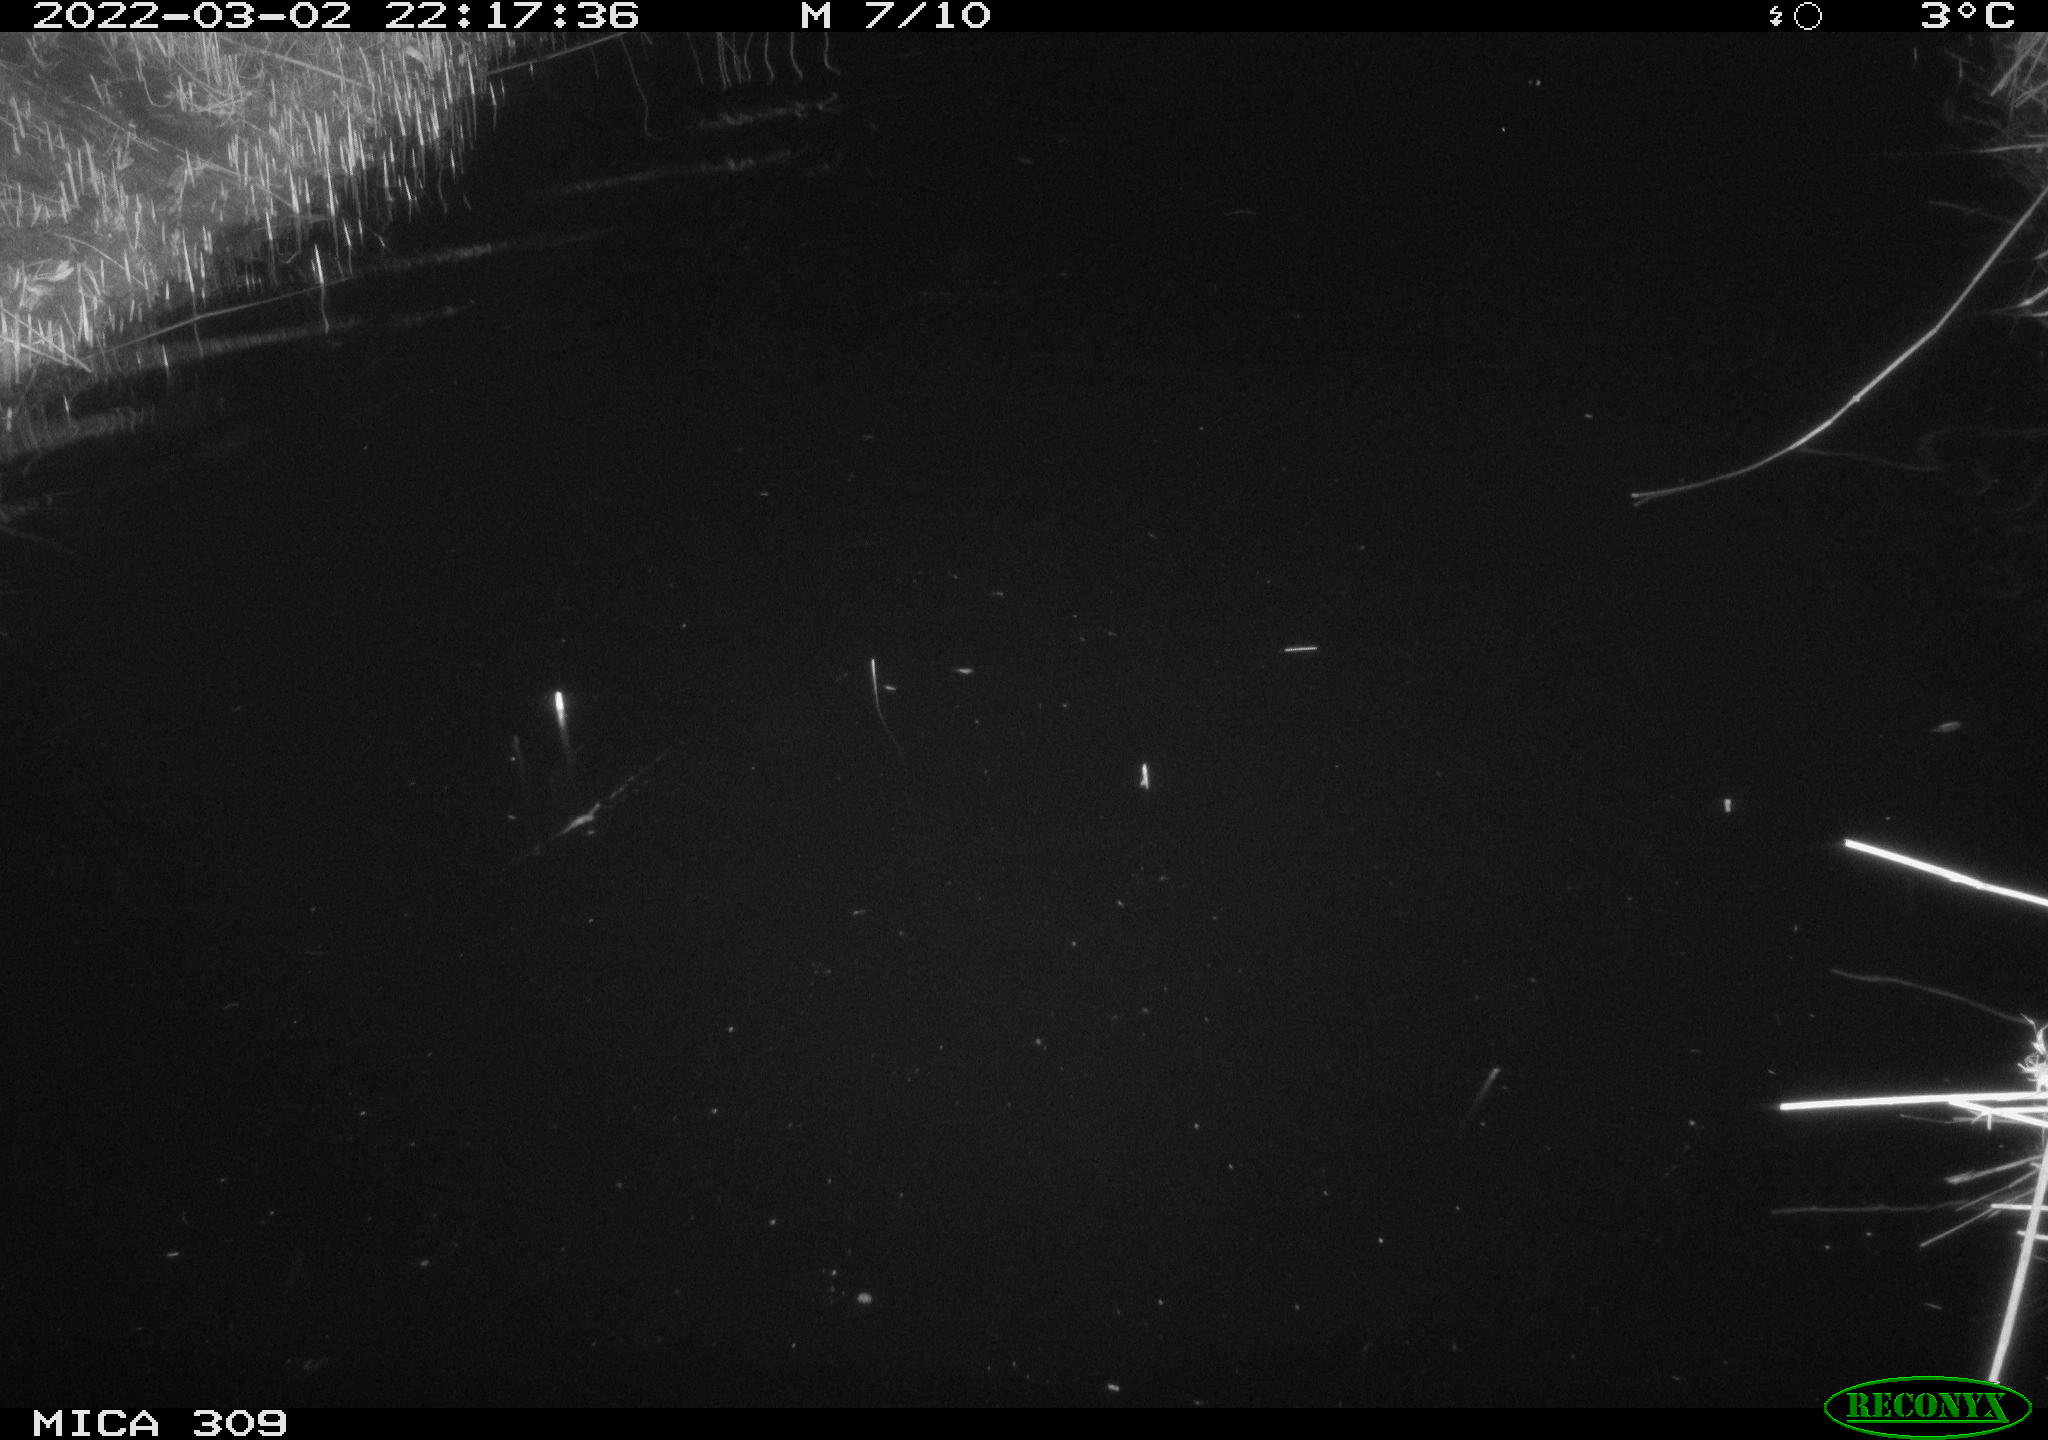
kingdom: Animalia
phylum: Chordata
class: Mammalia
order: Rodentia
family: Cricetidae
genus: Ondatra
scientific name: Ondatra zibethicus
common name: Muskrat
